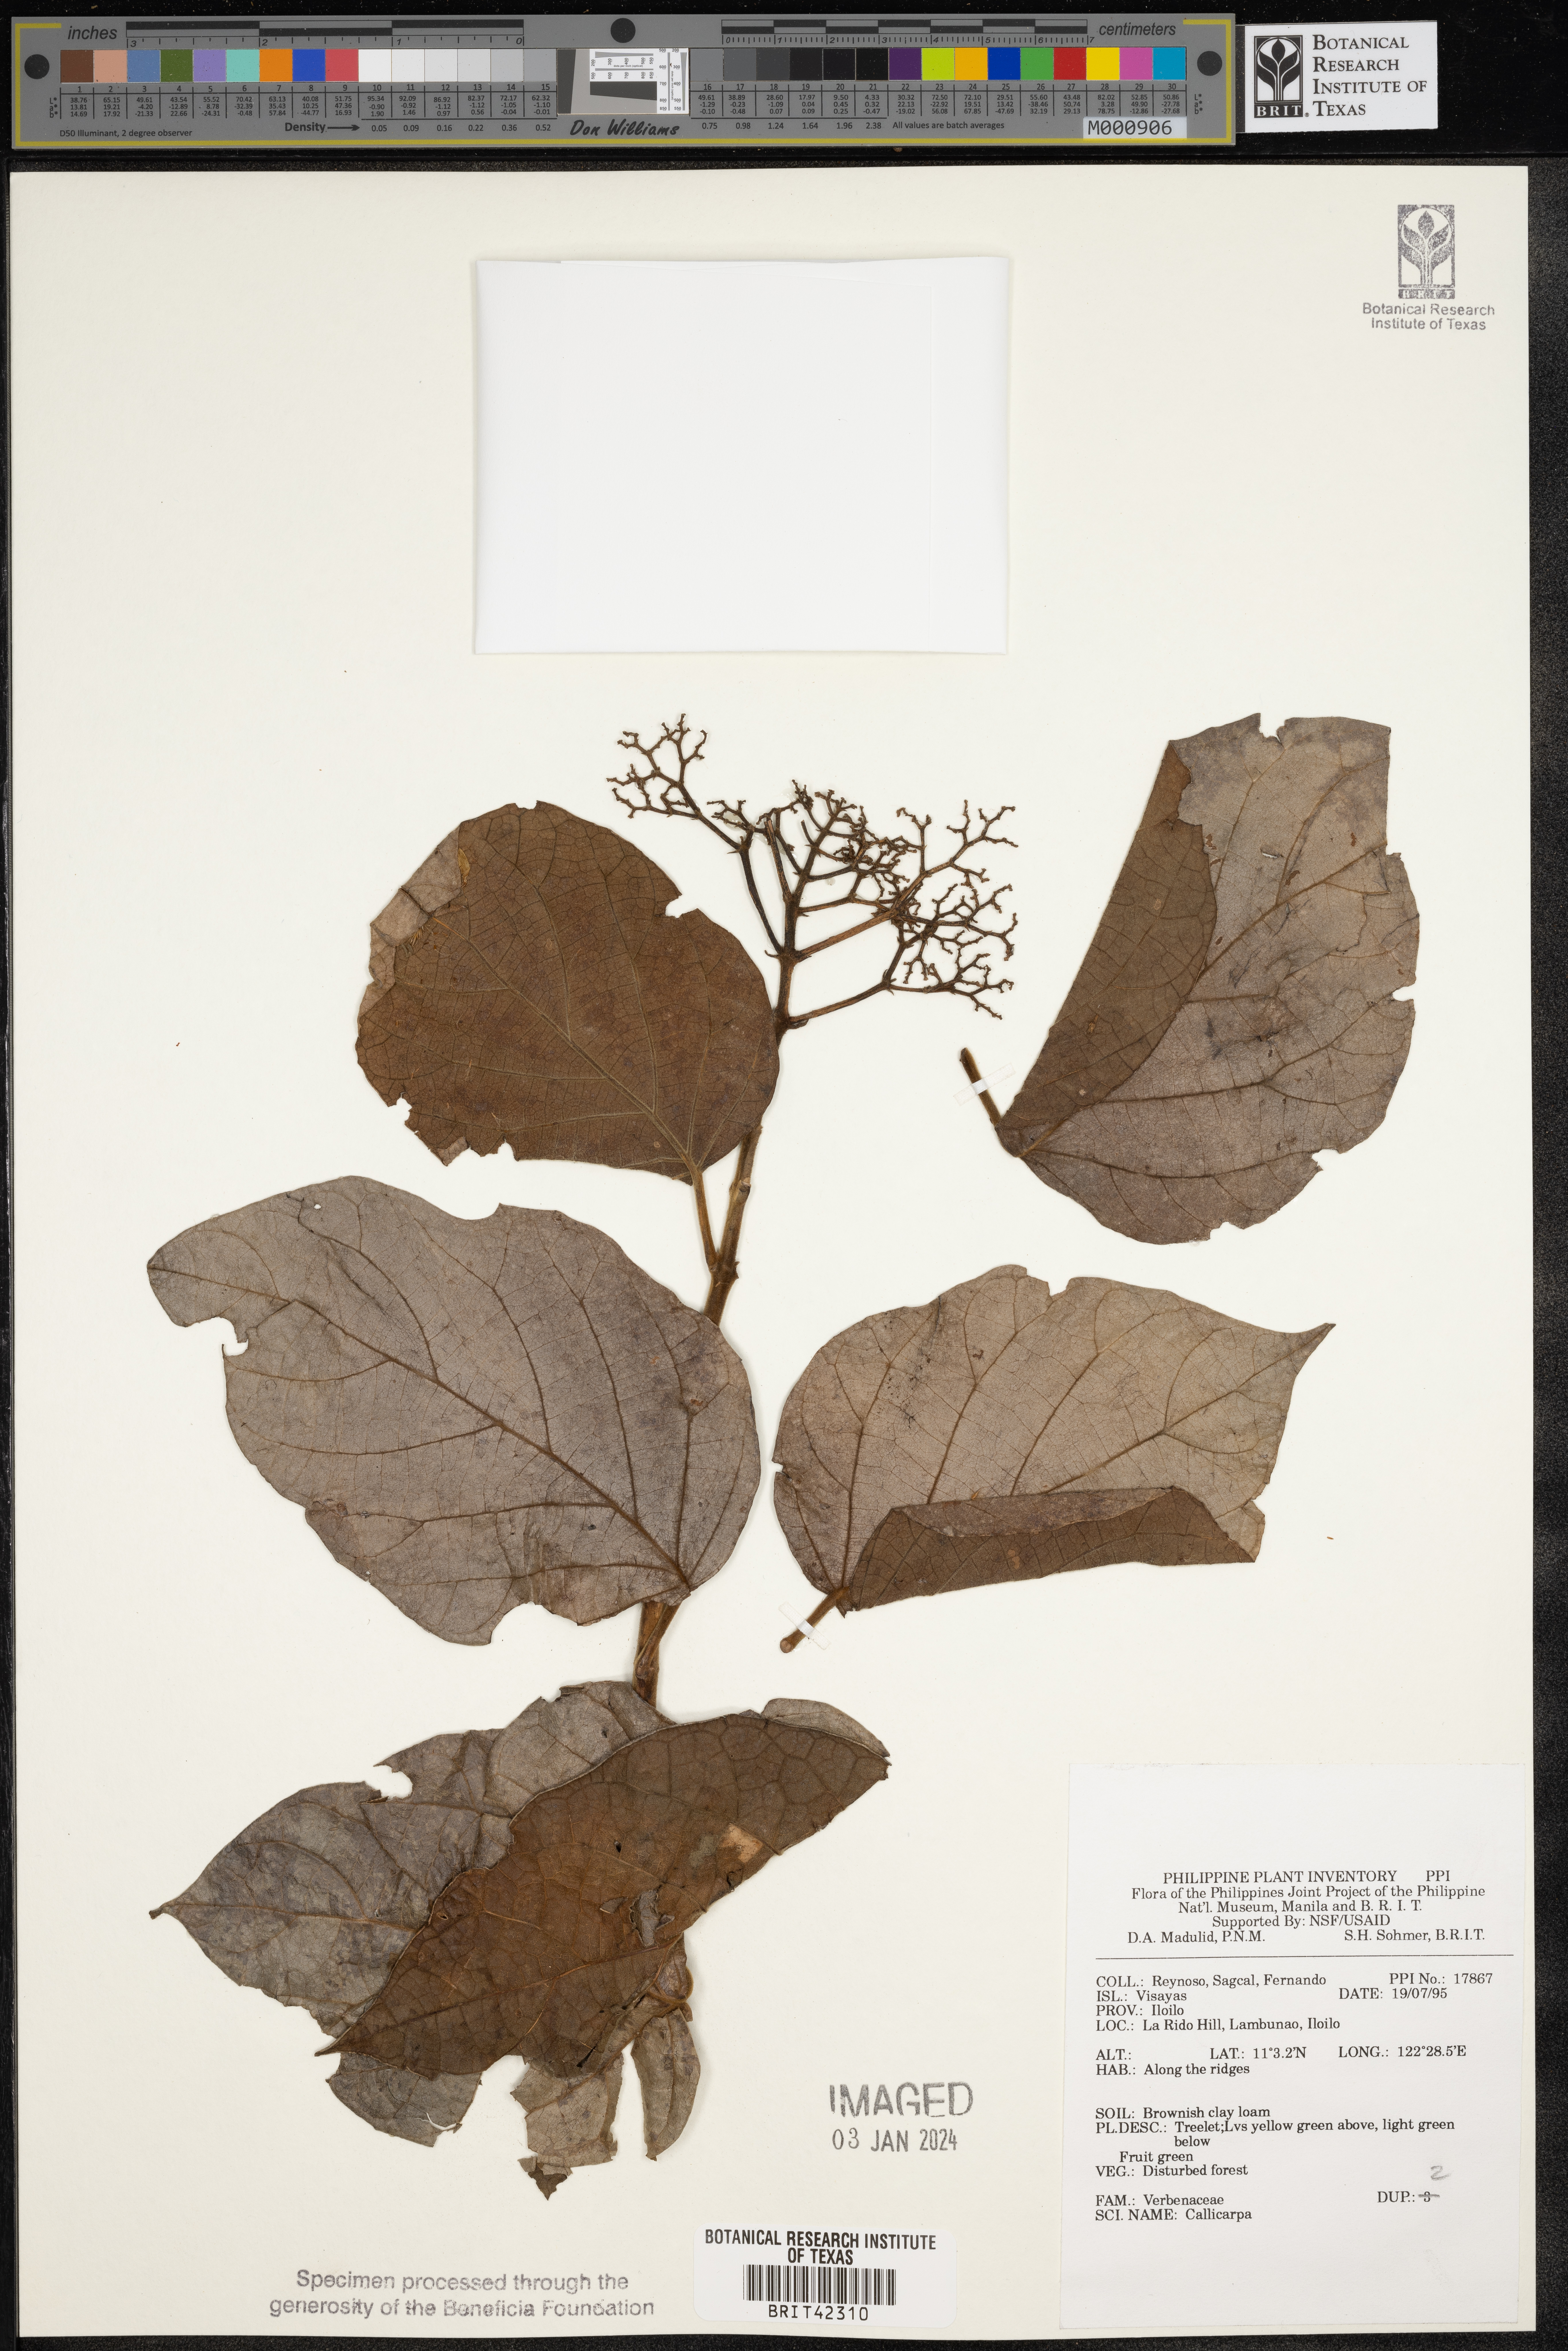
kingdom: Plantae
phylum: Tracheophyta
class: Magnoliopsida
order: Lamiales
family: Lamiaceae
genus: Callicarpa
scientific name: Callicarpa
